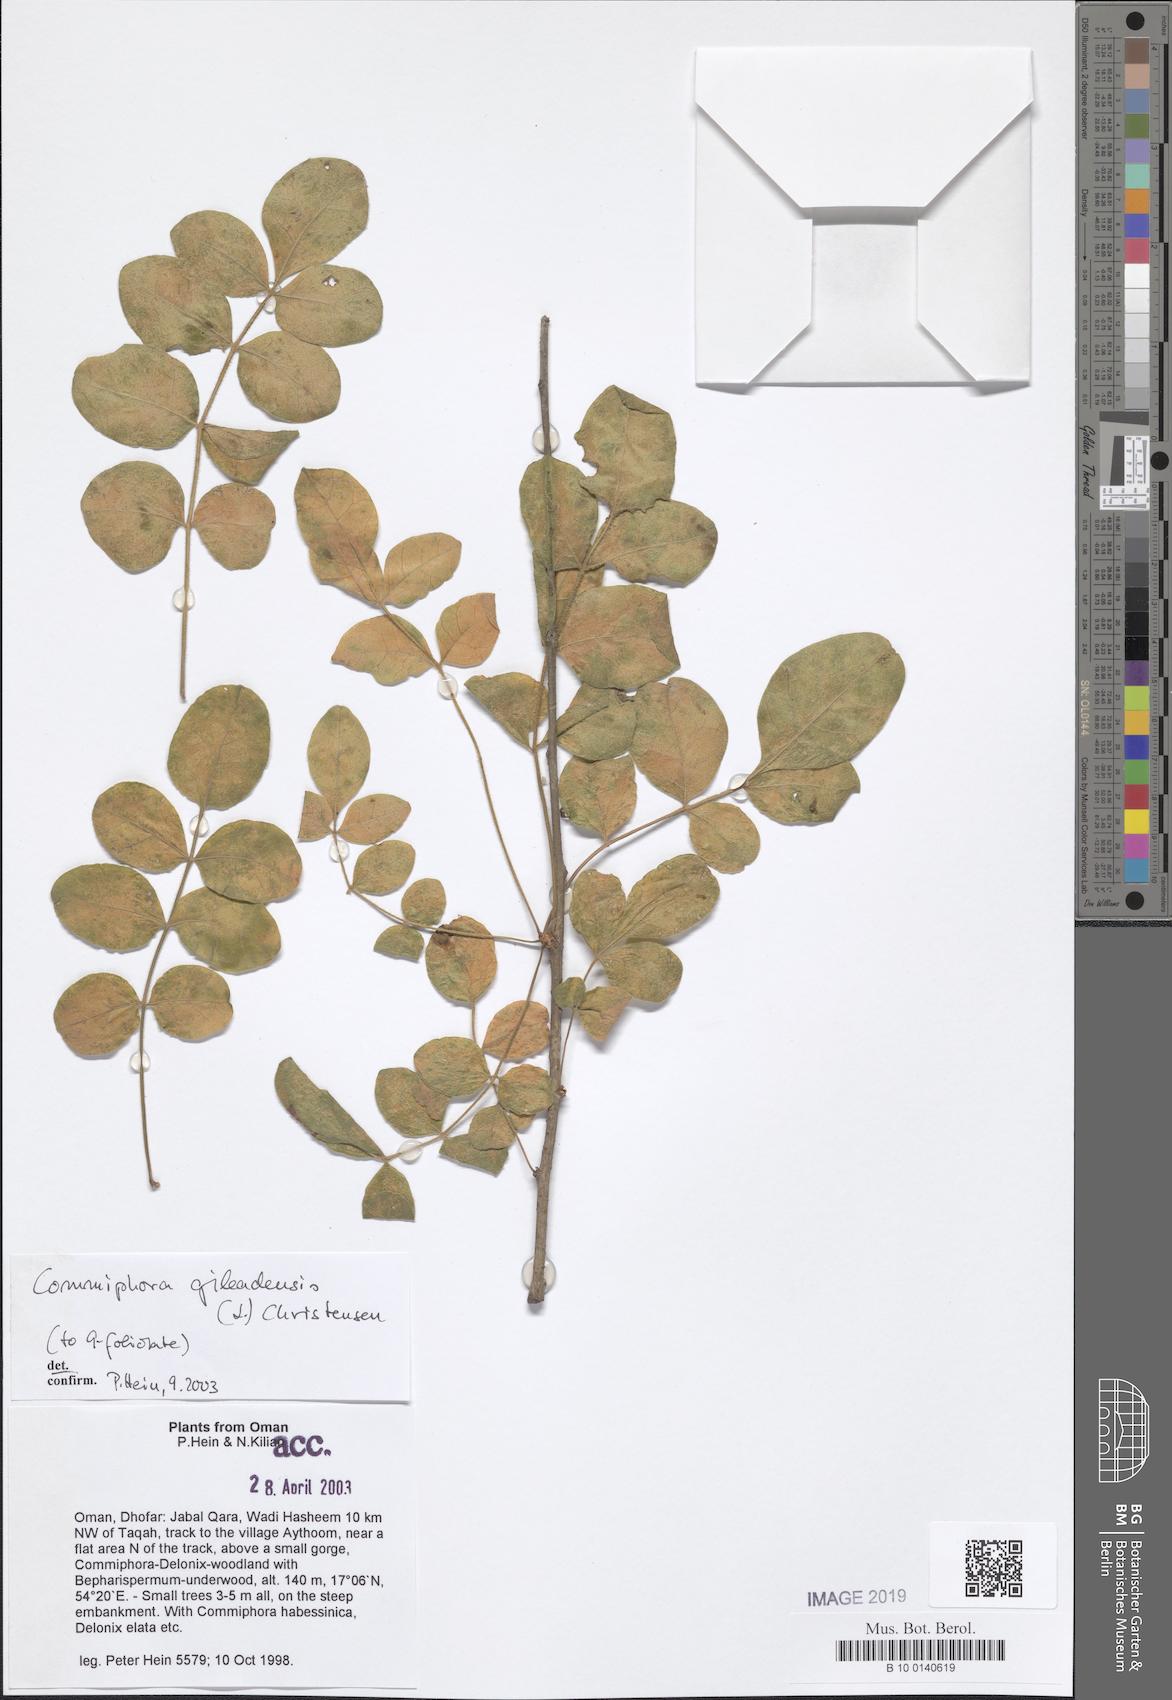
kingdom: Plantae
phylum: Tracheophyta
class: Magnoliopsida
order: Sapindales
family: Burseraceae
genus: Commiphora
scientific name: Commiphora gileadensis
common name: Balm-of-gilead
